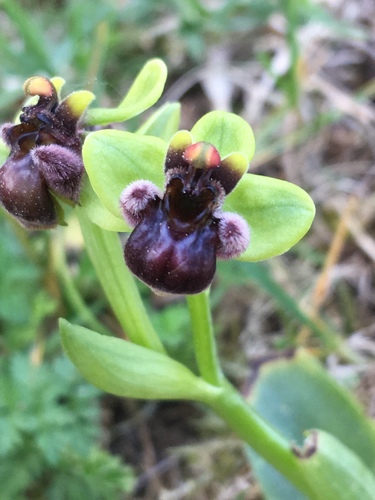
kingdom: Plantae
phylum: Tracheophyta
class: Liliopsida
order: Asparagales
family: Orchidaceae
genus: Ophrys
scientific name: Ophrys bombyliflora
